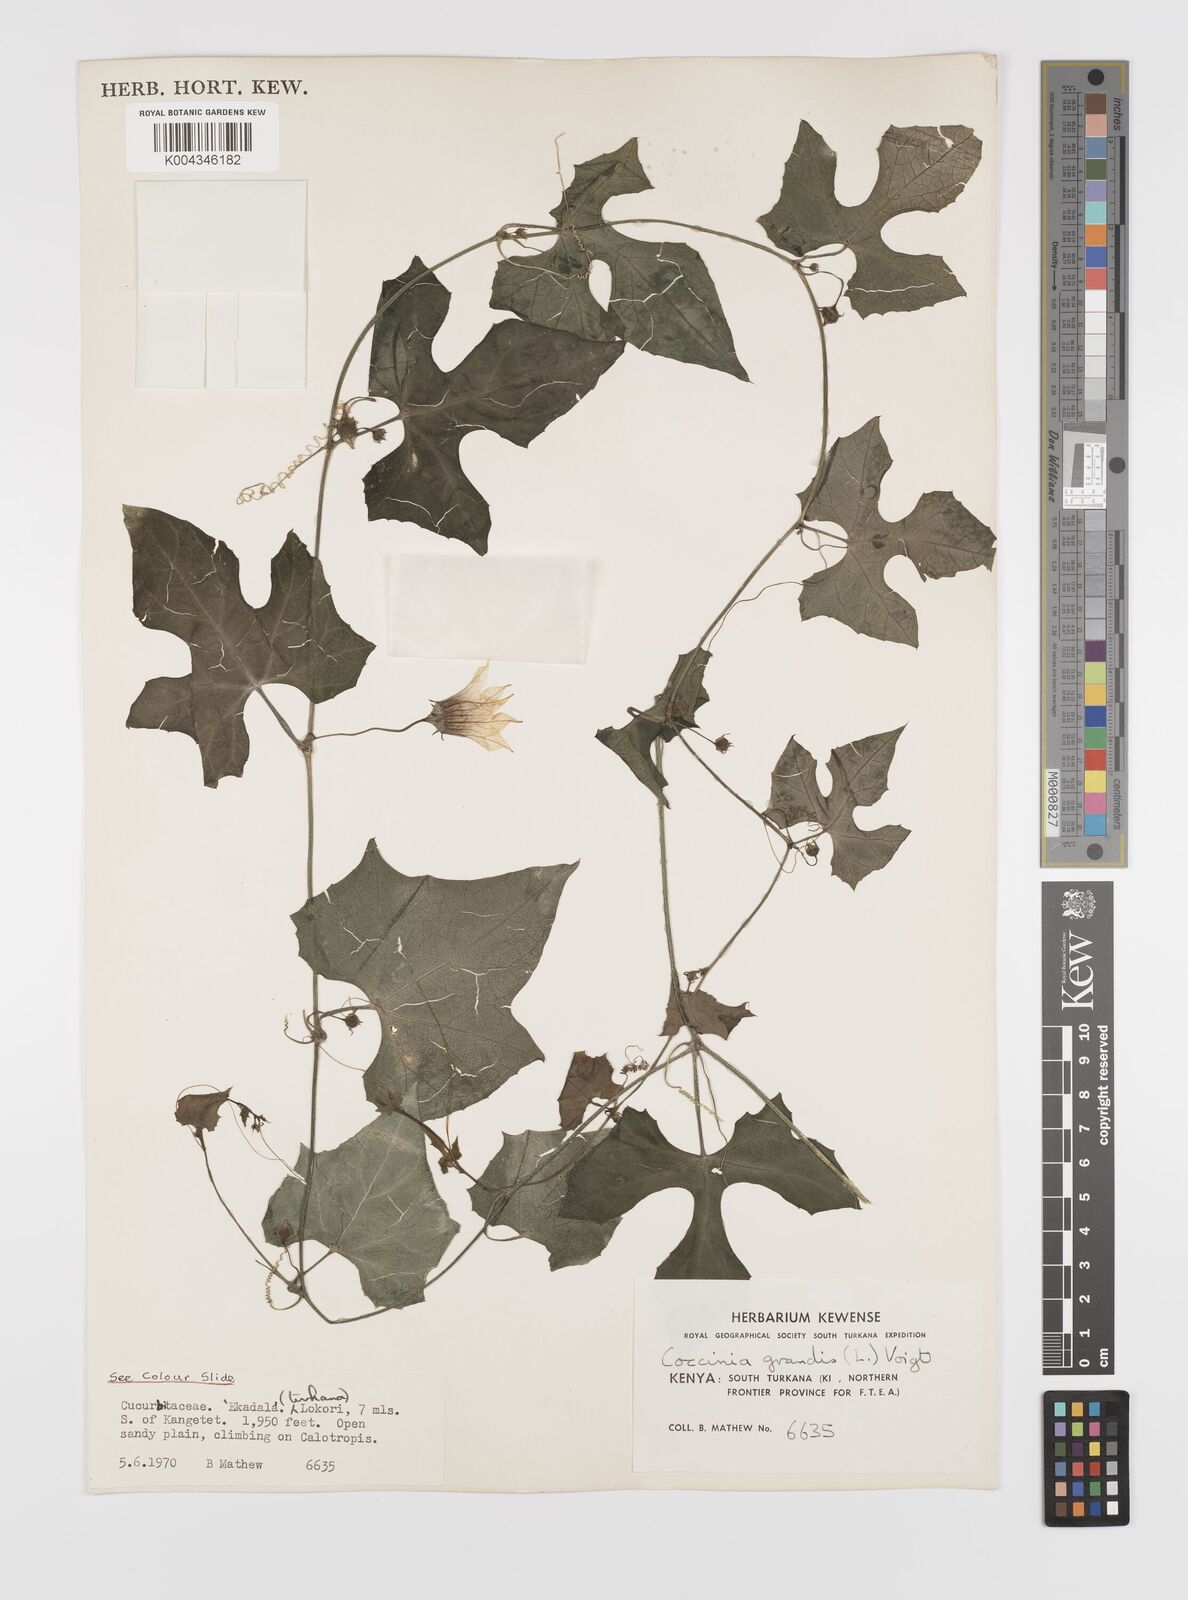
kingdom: Plantae
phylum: Tracheophyta
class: Magnoliopsida
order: Cucurbitales
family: Cucurbitaceae
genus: Coccinia
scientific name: Coccinia grandis
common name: Ivy gourd
